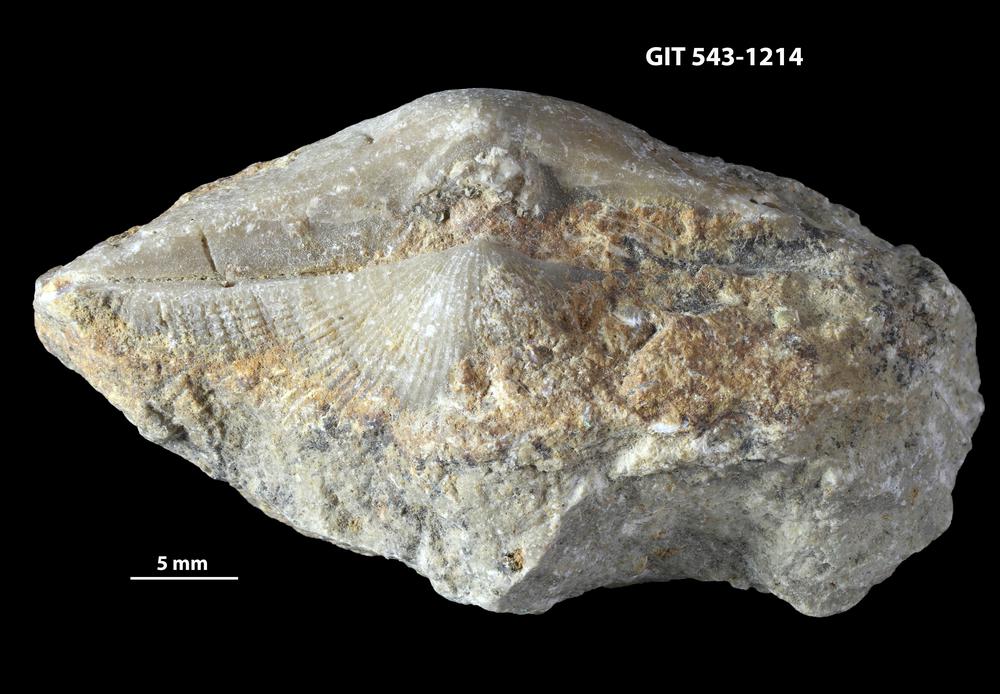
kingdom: Animalia
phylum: Brachiopoda
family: Gonambonitidae
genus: Estlandia
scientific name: Estlandia pyron
